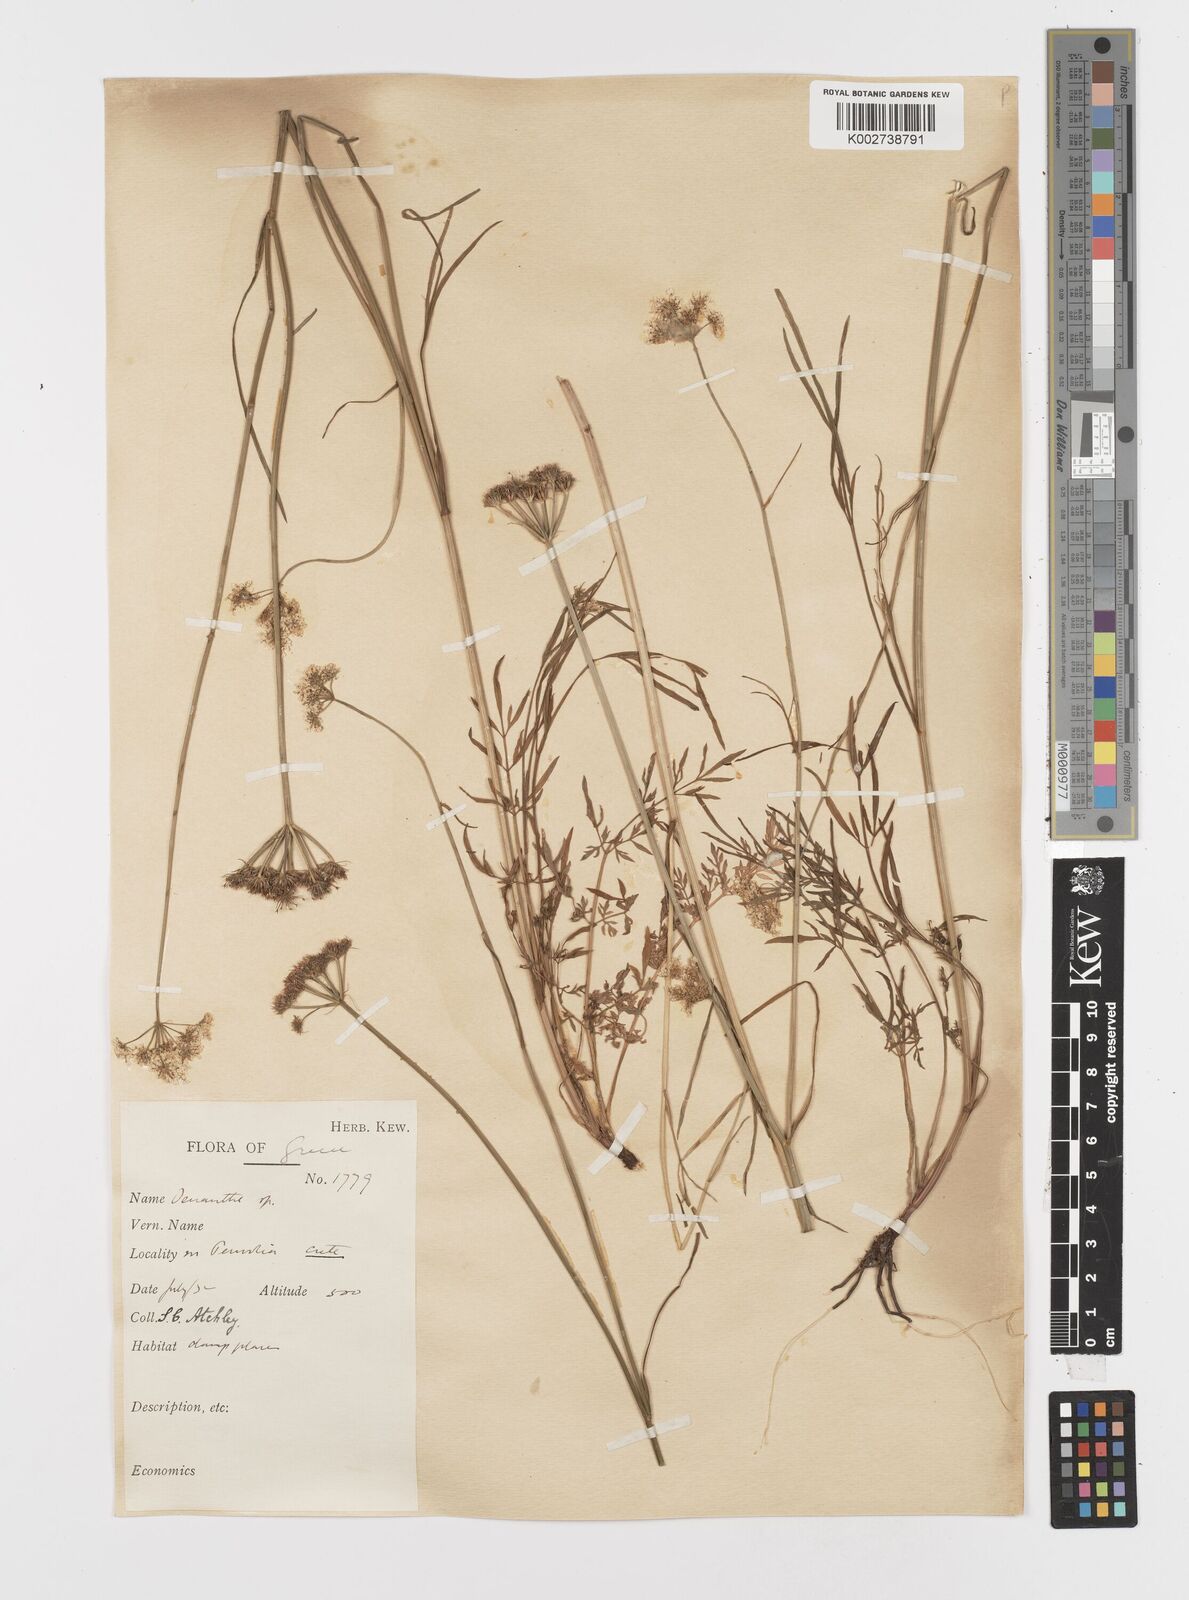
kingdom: Plantae
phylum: Tracheophyta
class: Magnoliopsida
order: Apiales
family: Apiaceae
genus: Oenanthe
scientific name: Oenanthe pimpinelloides
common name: Corky-fruited water-dropwort
